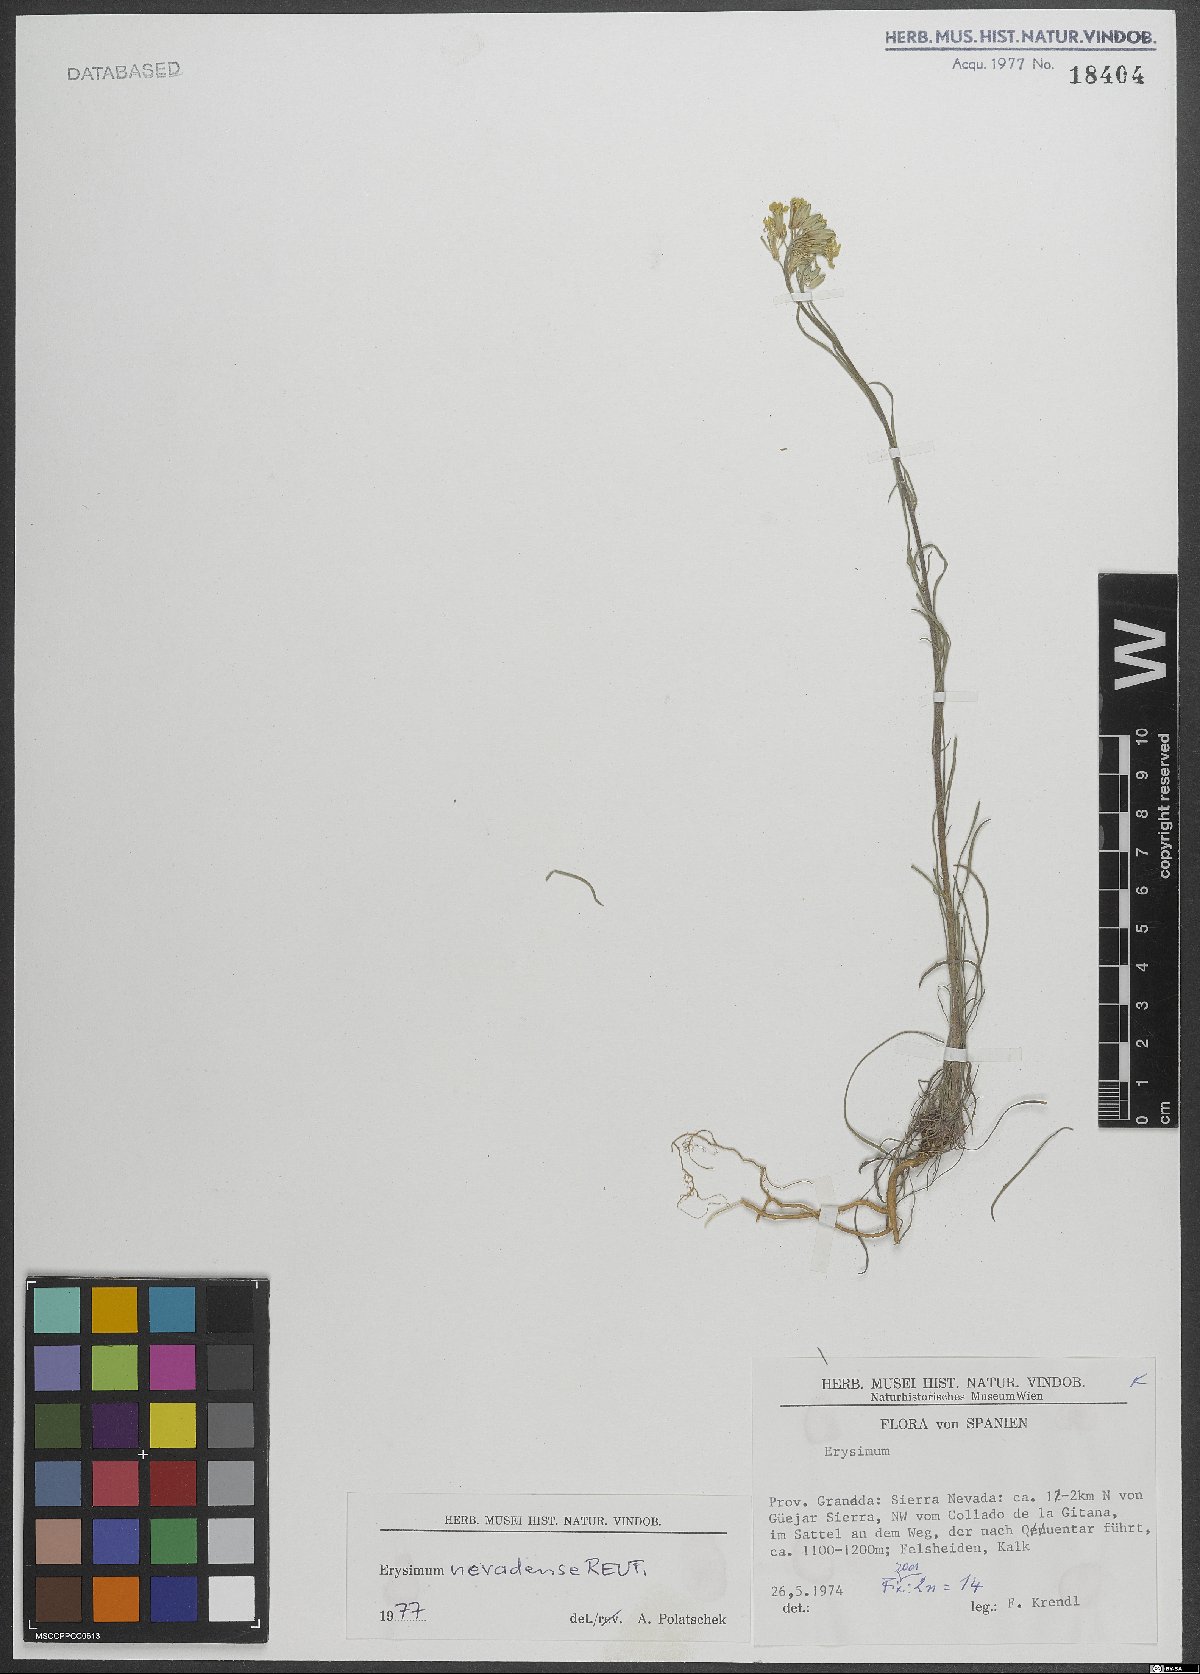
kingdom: Plantae
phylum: Tracheophyta
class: Magnoliopsida
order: Brassicales
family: Brassicaceae
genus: Erysimum
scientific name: Erysimum nevadense
